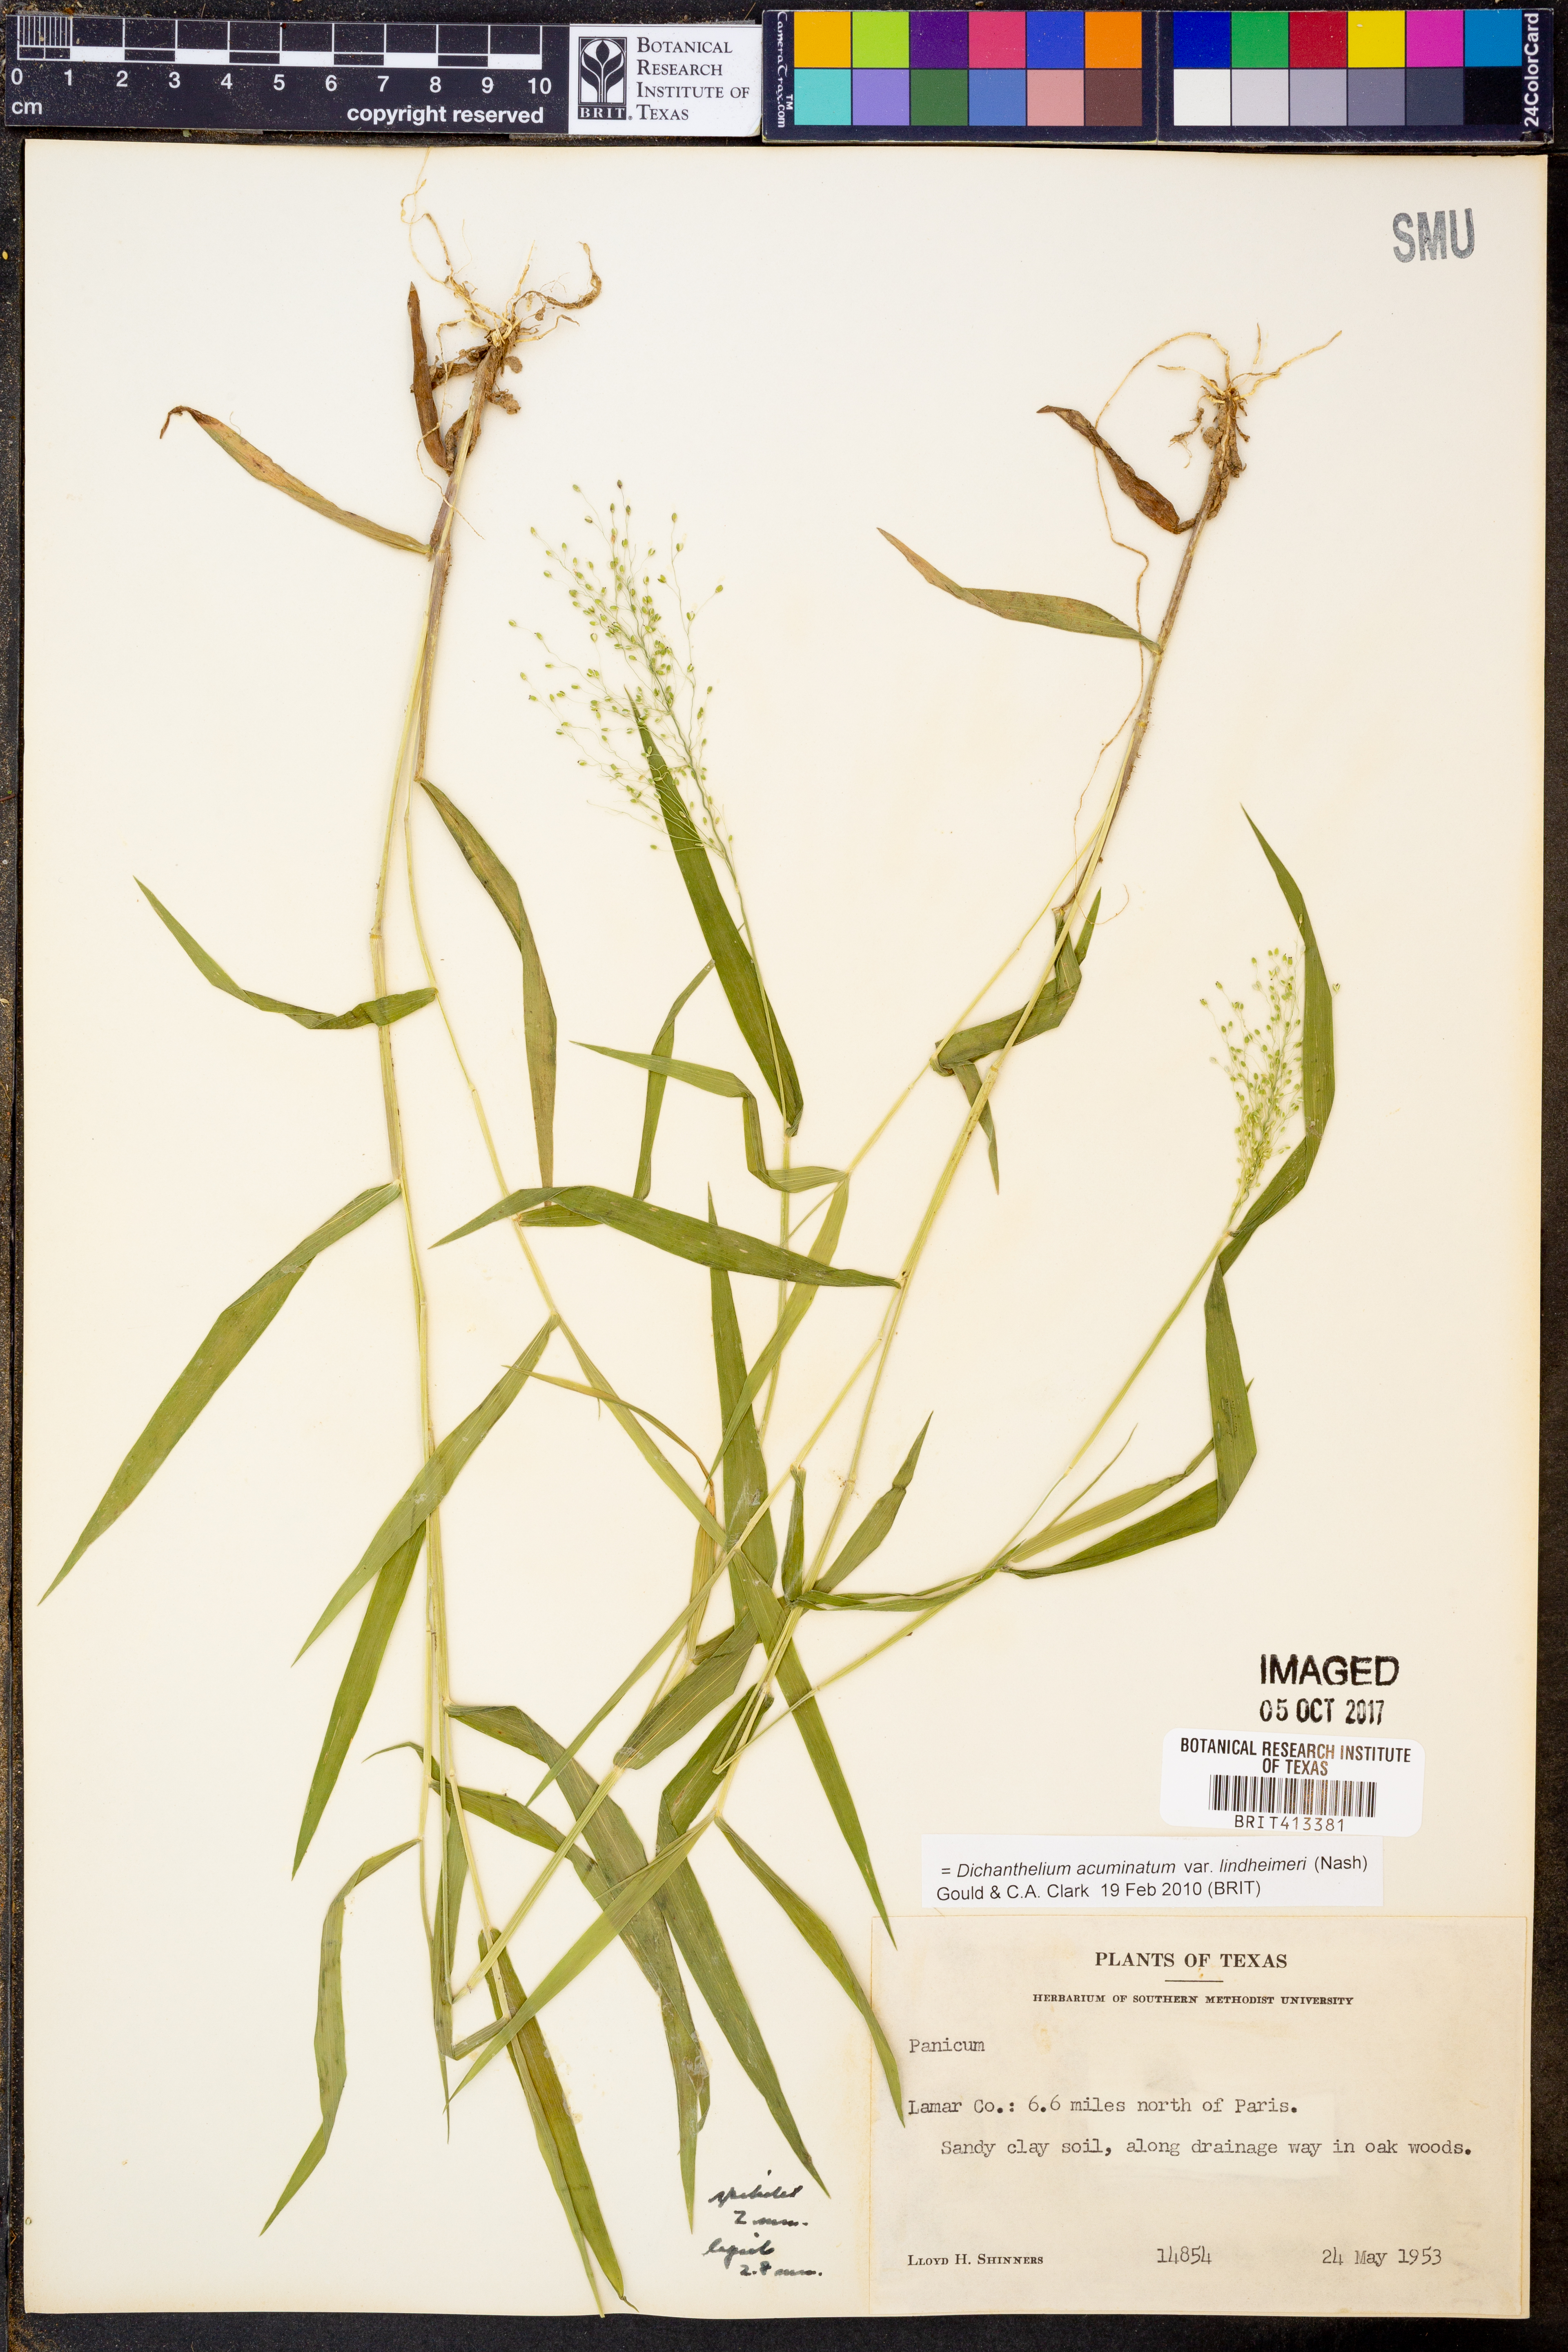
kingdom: Plantae
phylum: Tracheophyta
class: Liliopsida
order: Poales
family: Poaceae
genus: Dichanthelium
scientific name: Dichanthelium lindheimeri
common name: Lindheimer's panicgrass
